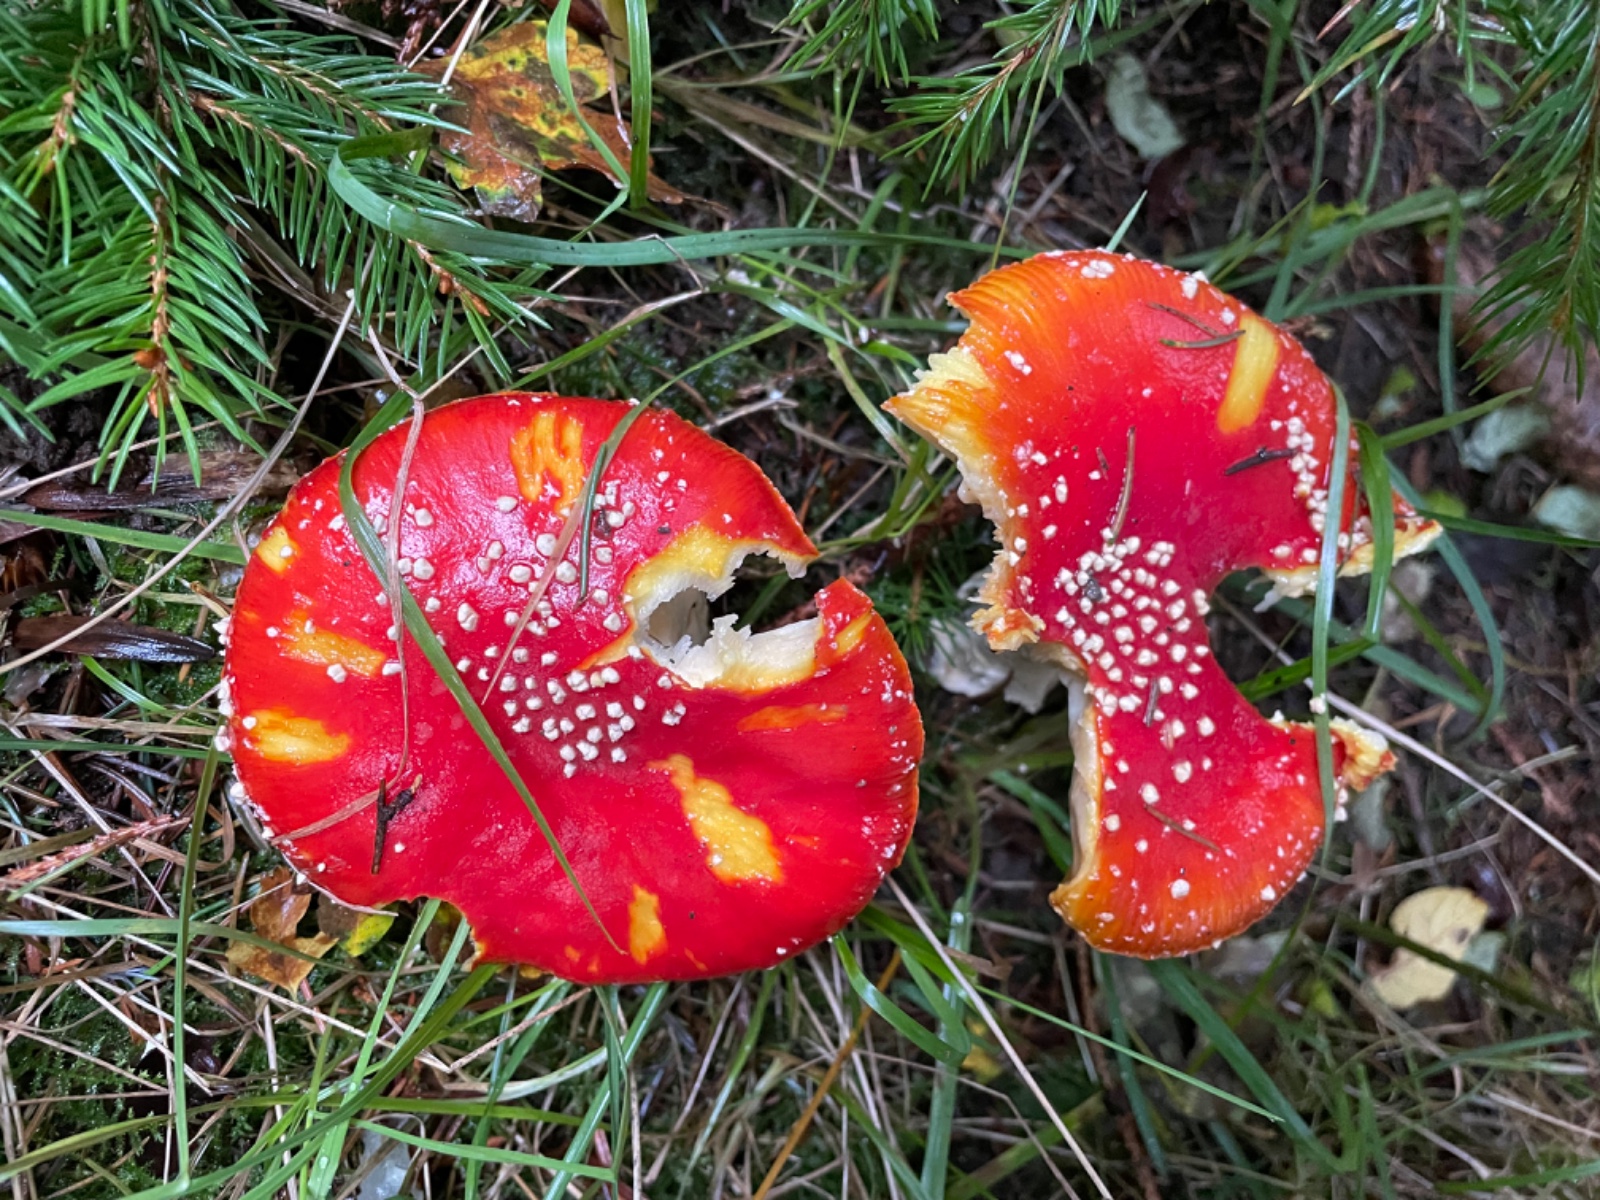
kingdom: Fungi
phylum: Basidiomycota
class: Agaricomycetes
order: Agaricales
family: Amanitaceae
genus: Amanita
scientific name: Amanita muscaria
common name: rød fluesvamp
